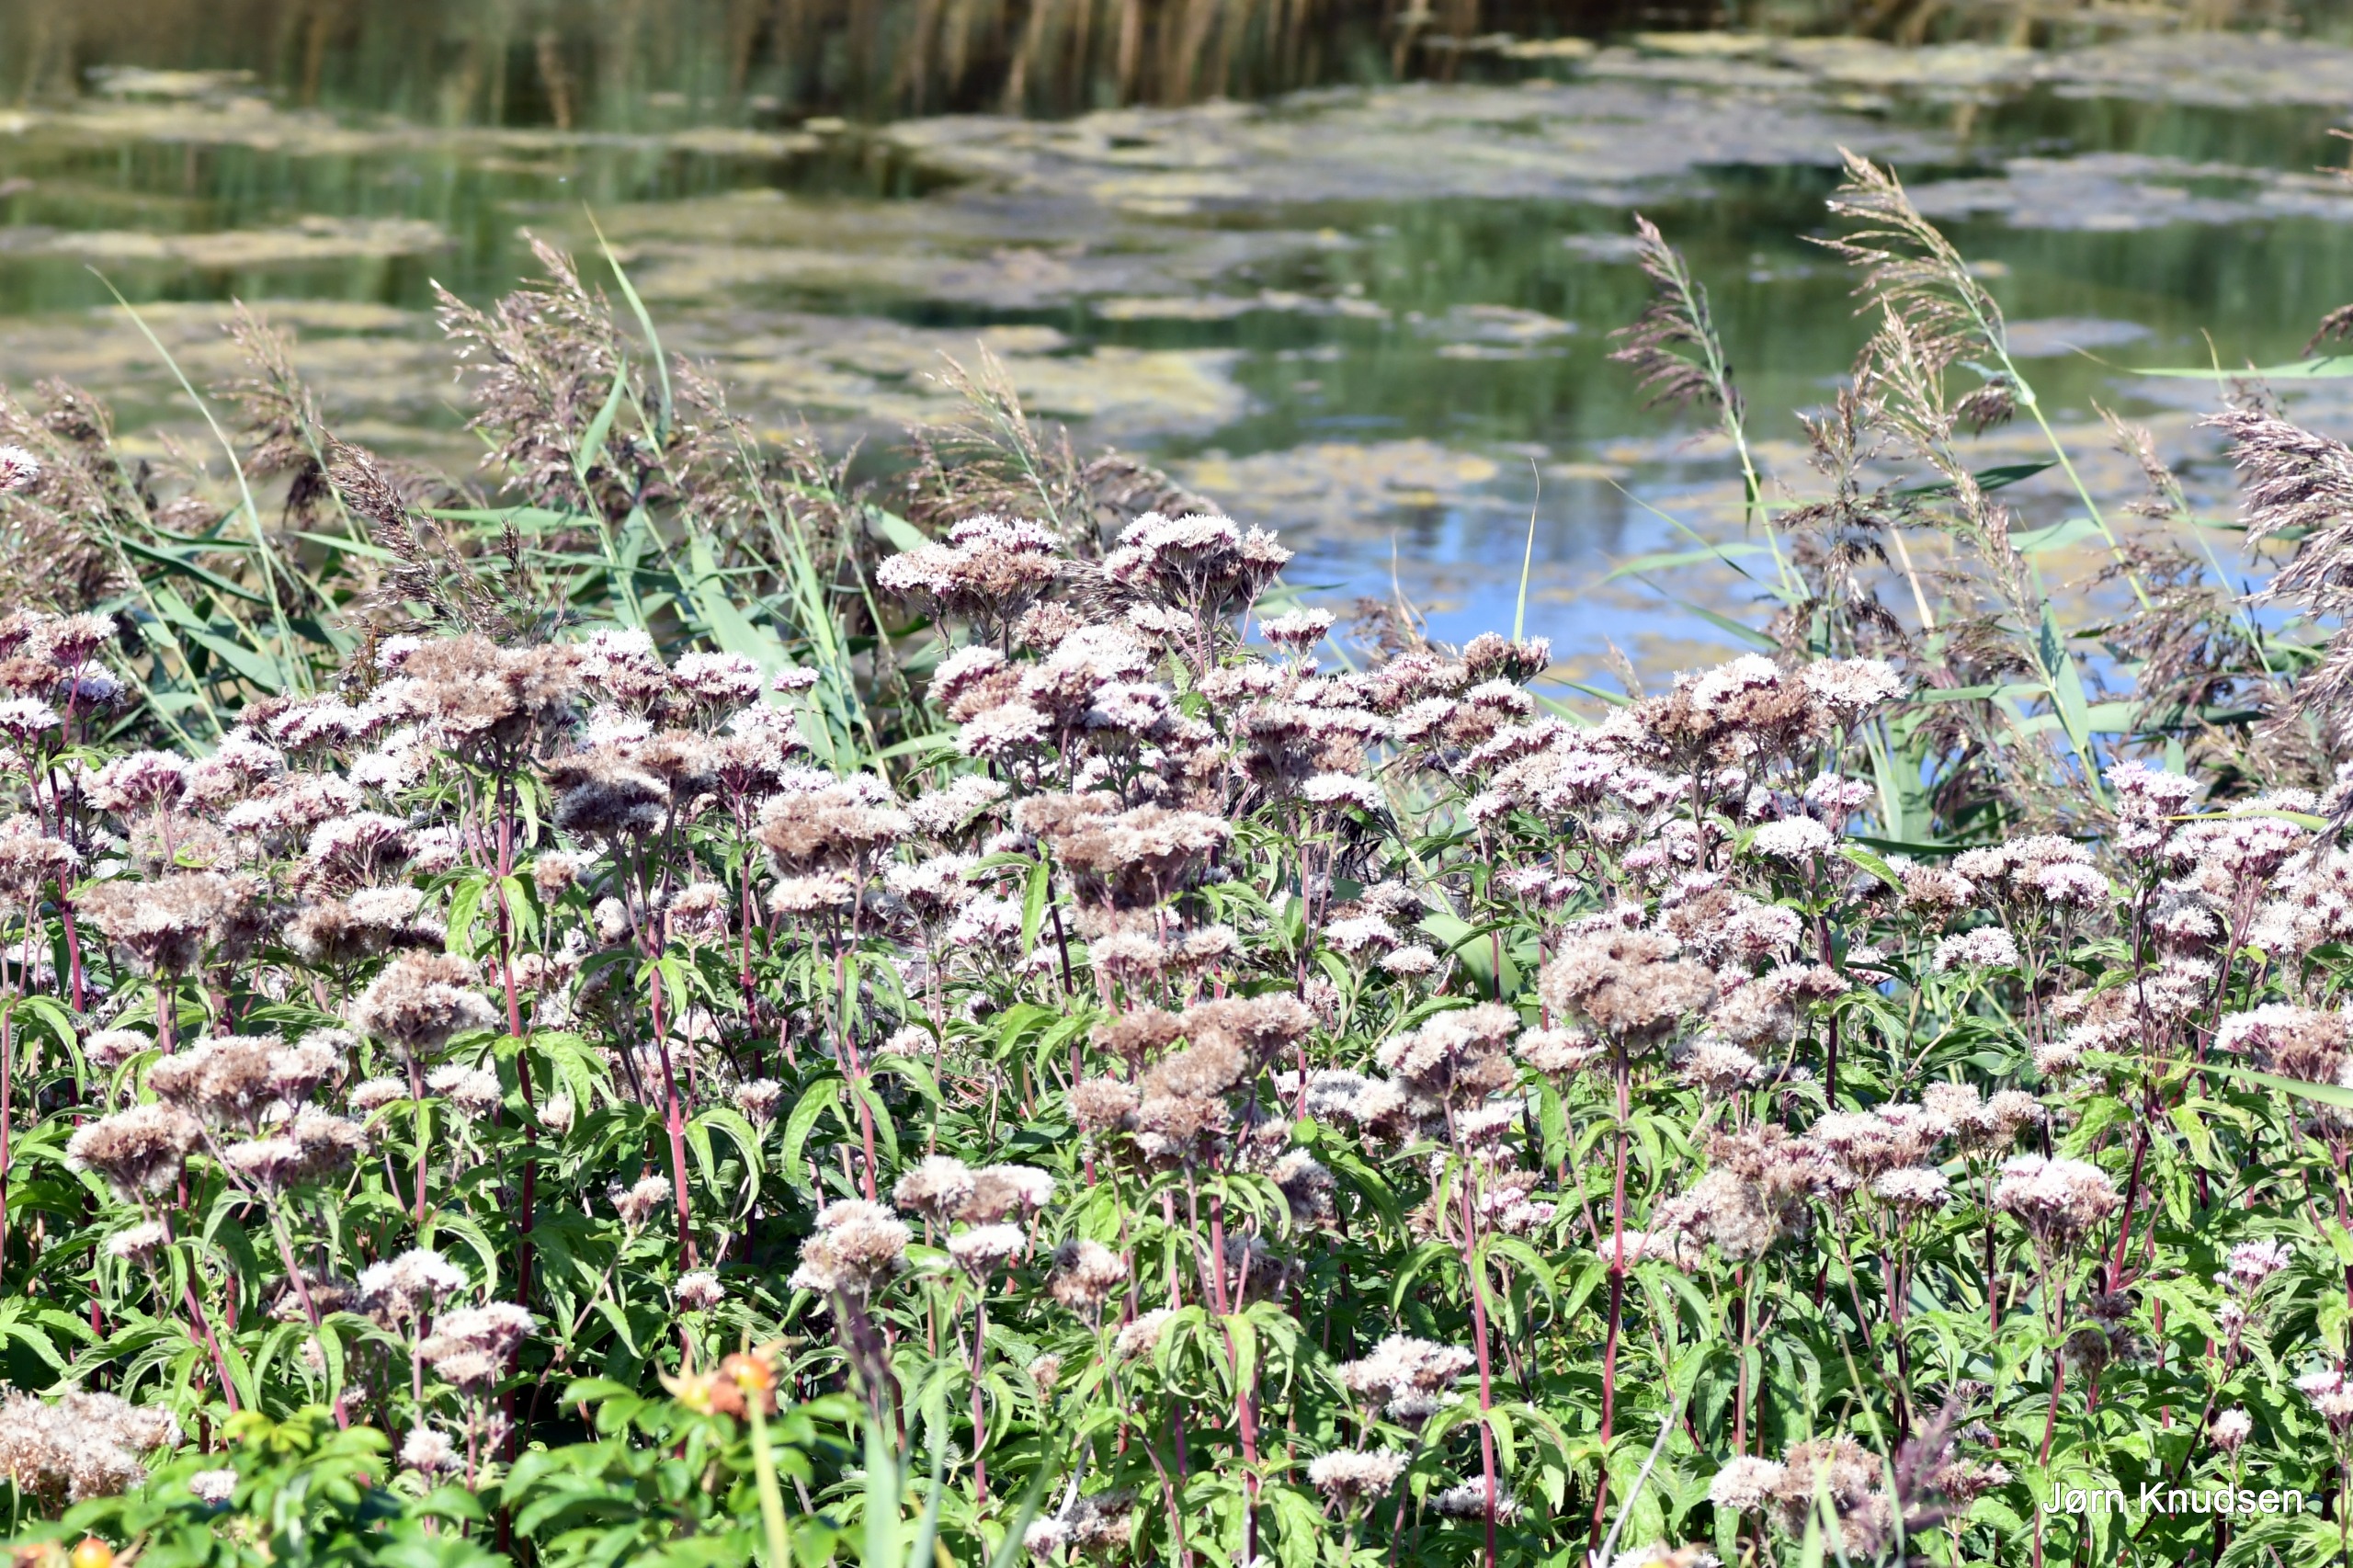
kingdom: Plantae
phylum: Tracheophyta
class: Magnoliopsida
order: Asterales
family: Asteraceae
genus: Eupatorium
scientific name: Eupatorium cannabinum
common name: Hjortetrøst
